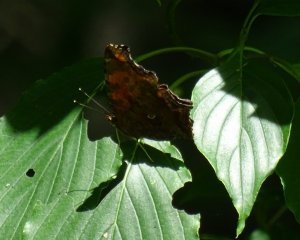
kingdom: Animalia
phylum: Arthropoda
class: Insecta
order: Lepidoptera
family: Nymphalidae
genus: Polygonia
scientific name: Polygonia comma
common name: Eastern Comma
